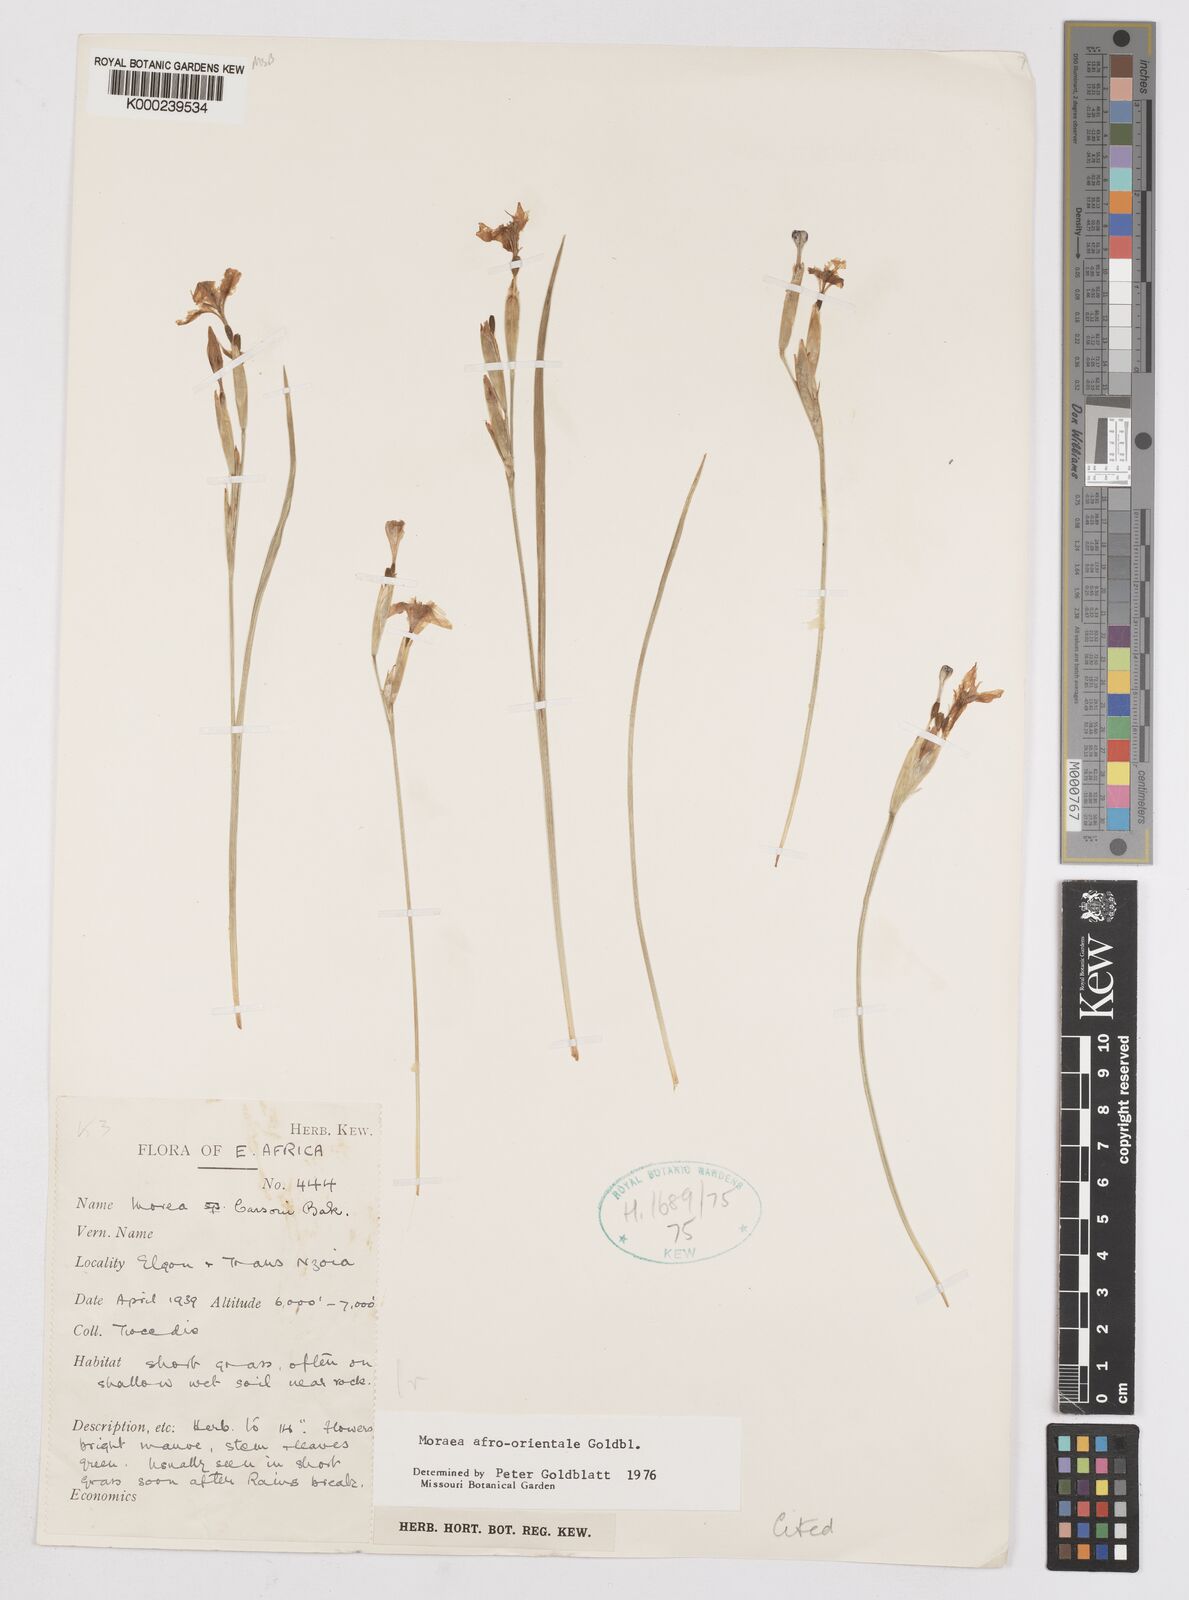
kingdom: Plantae
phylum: Tracheophyta
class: Liliopsida
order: Asparagales
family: Iridaceae
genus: Moraea
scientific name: Moraea
